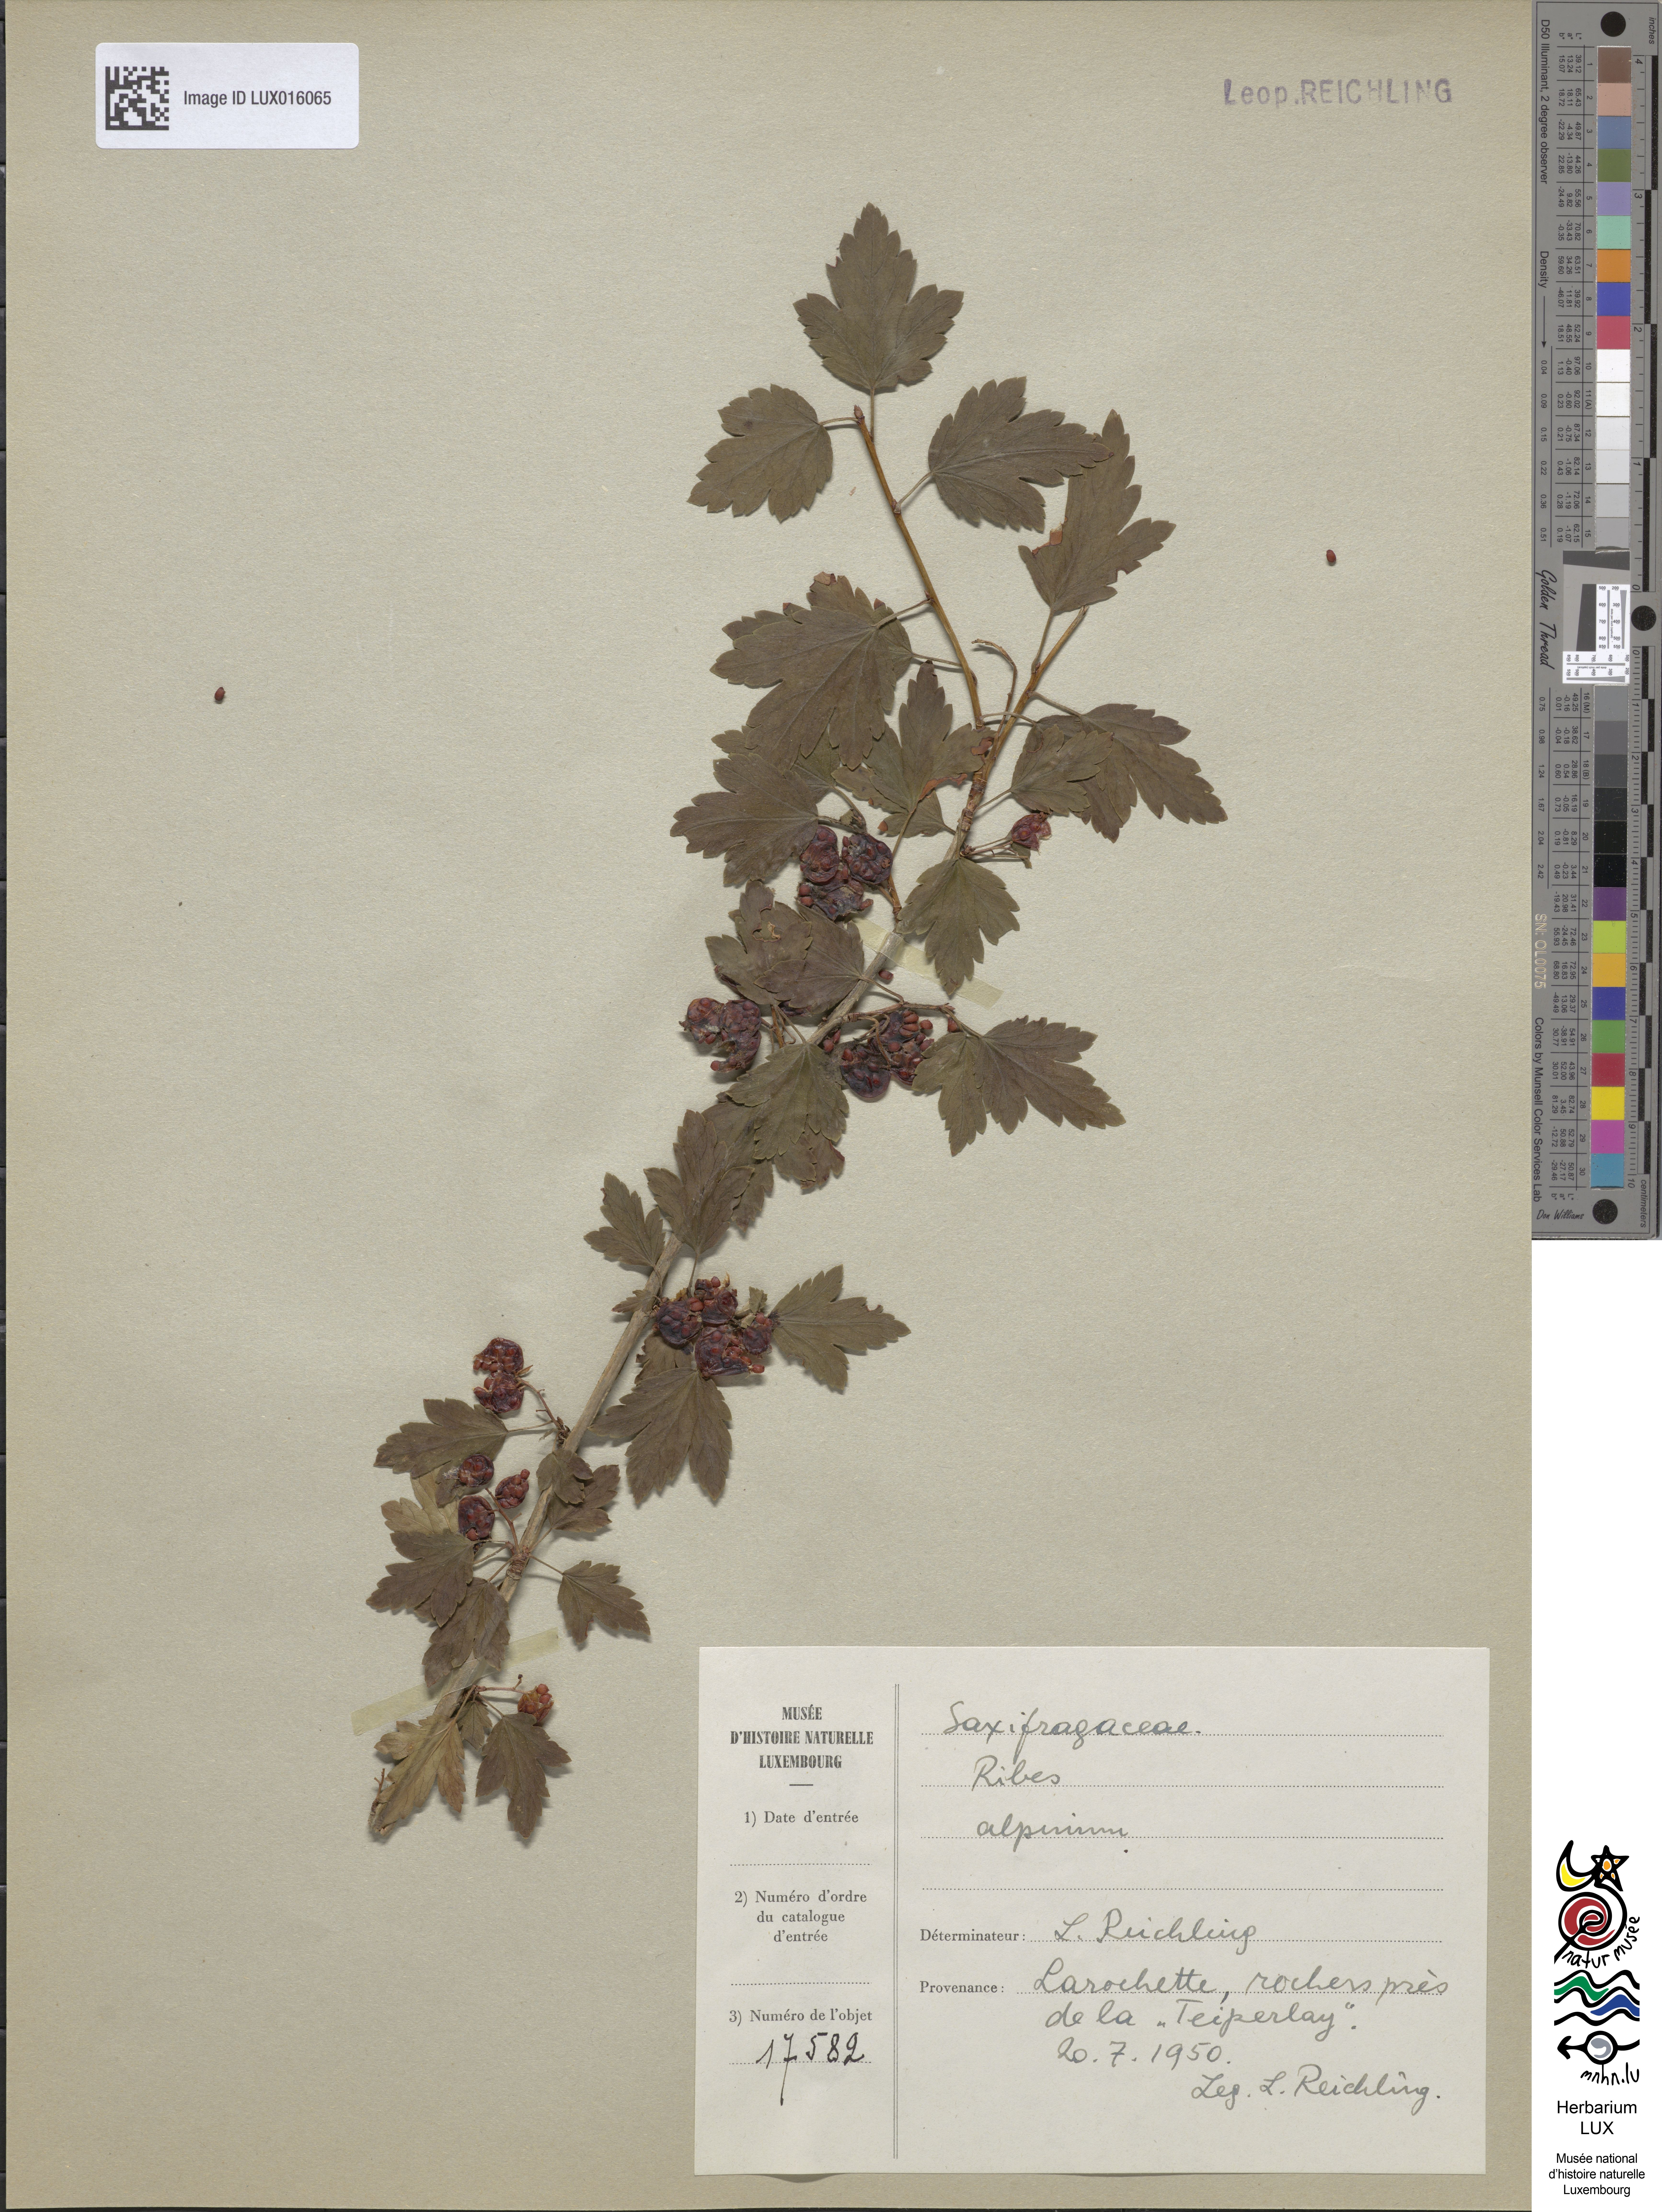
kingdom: Plantae
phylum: Tracheophyta
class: Magnoliopsida
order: Saxifragales
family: Grossulariaceae
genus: Ribes
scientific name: Ribes alpinum
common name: Alpine currant
